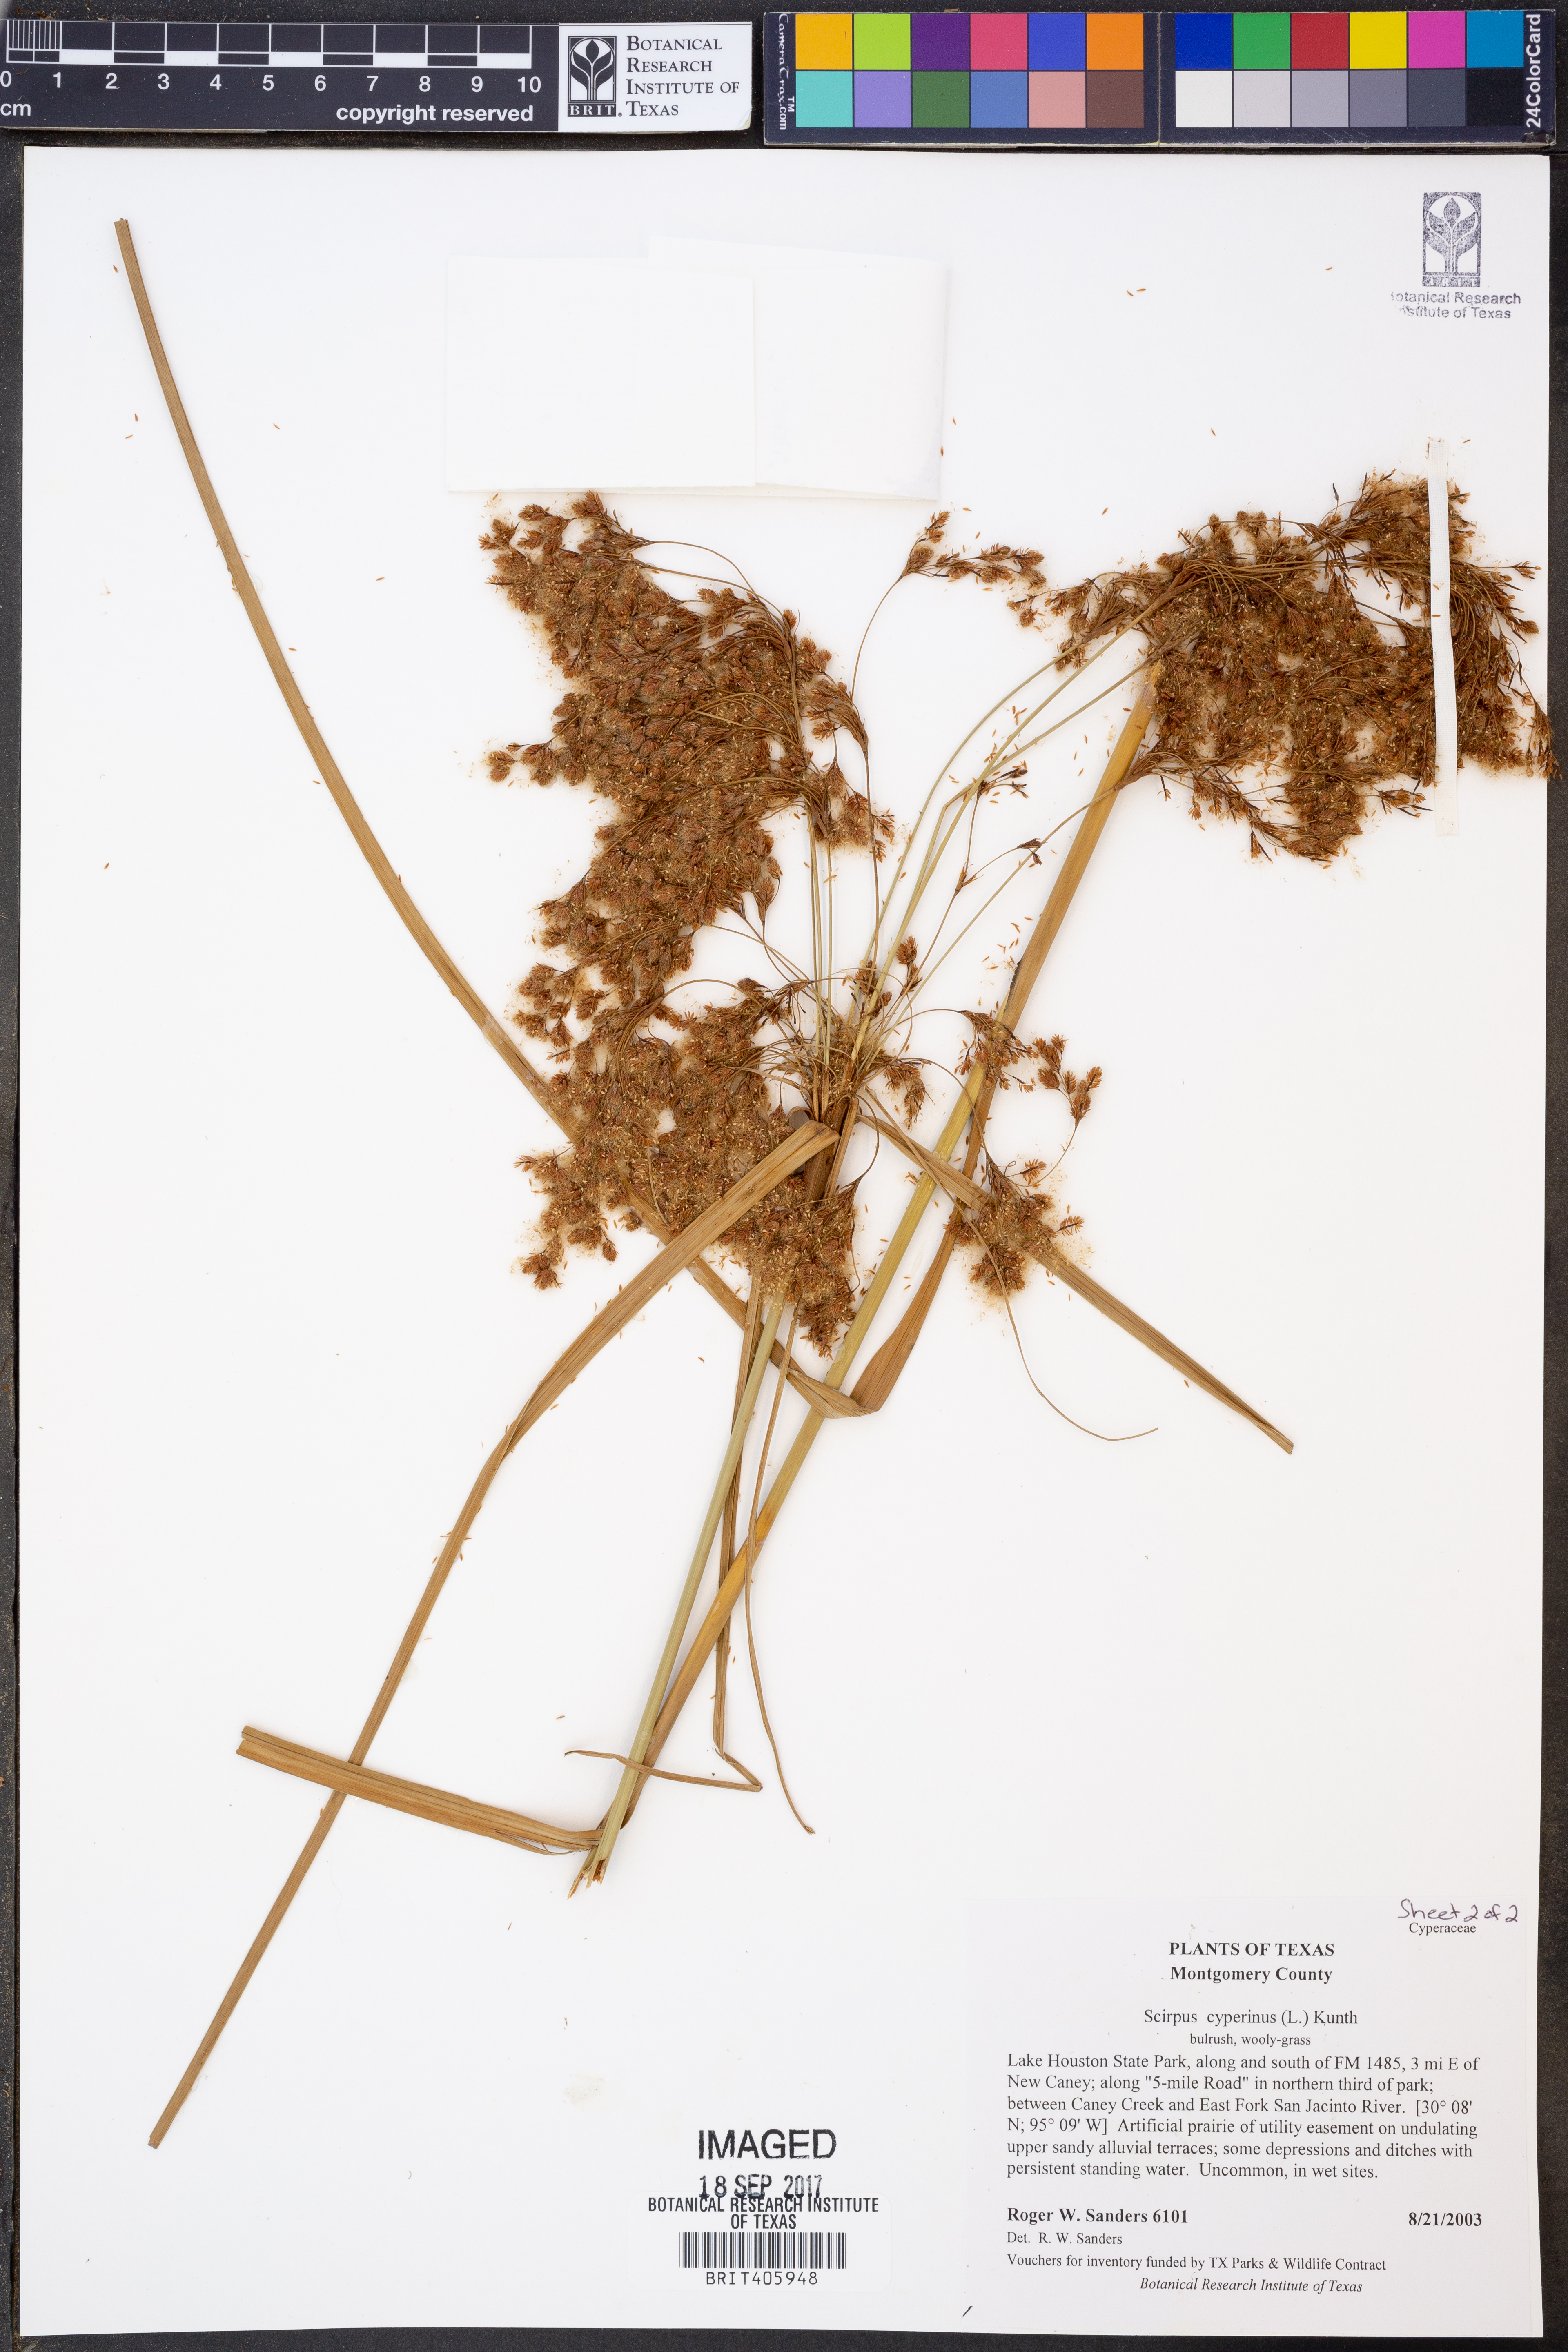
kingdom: Plantae
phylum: Tracheophyta
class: Liliopsida
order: Poales
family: Cyperaceae
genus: Scirpus
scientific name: Scirpus cyperinus
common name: Black-sheathed bulrush
